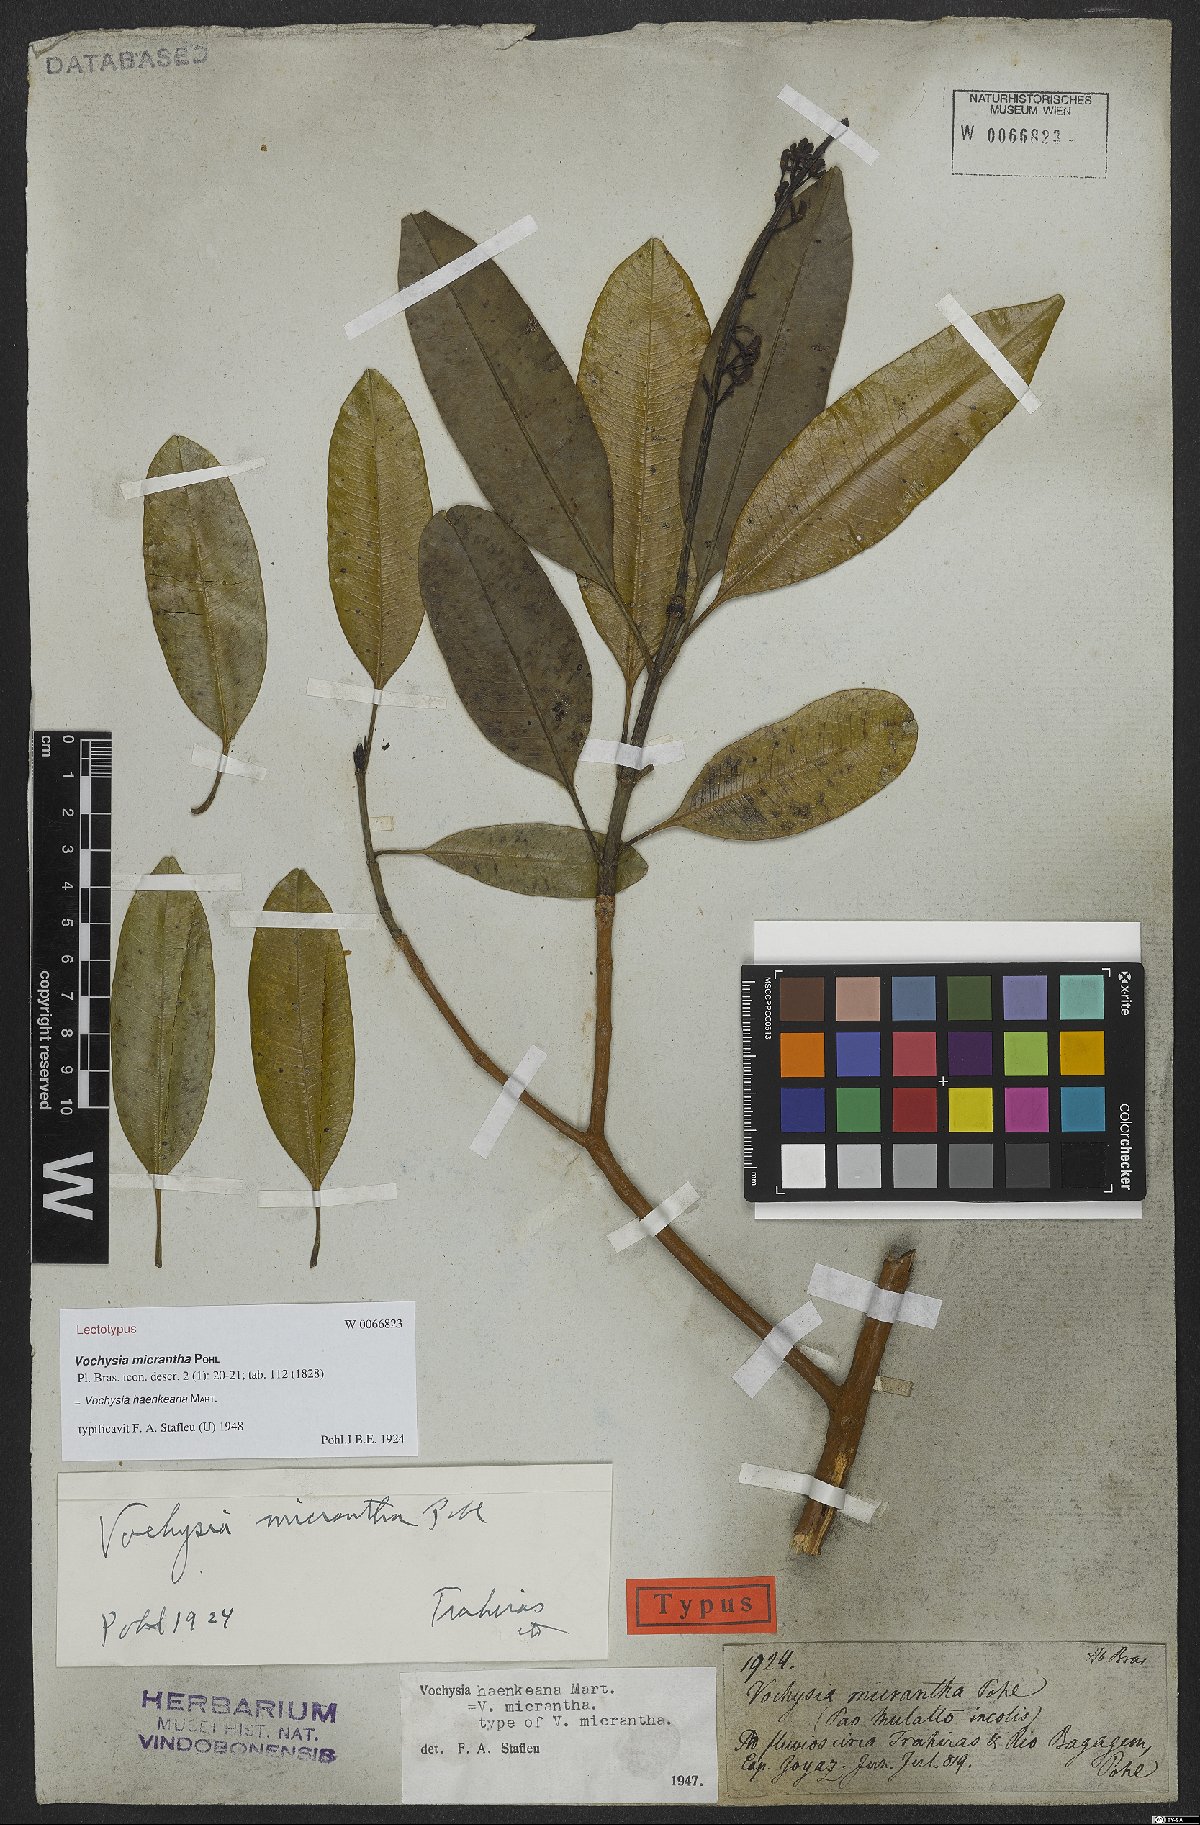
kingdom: Plantae
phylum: Tracheophyta
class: Magnoliopsida
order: Myrtales
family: Vochysiaceae
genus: Vochysia
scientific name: Vochysia haenkeana
